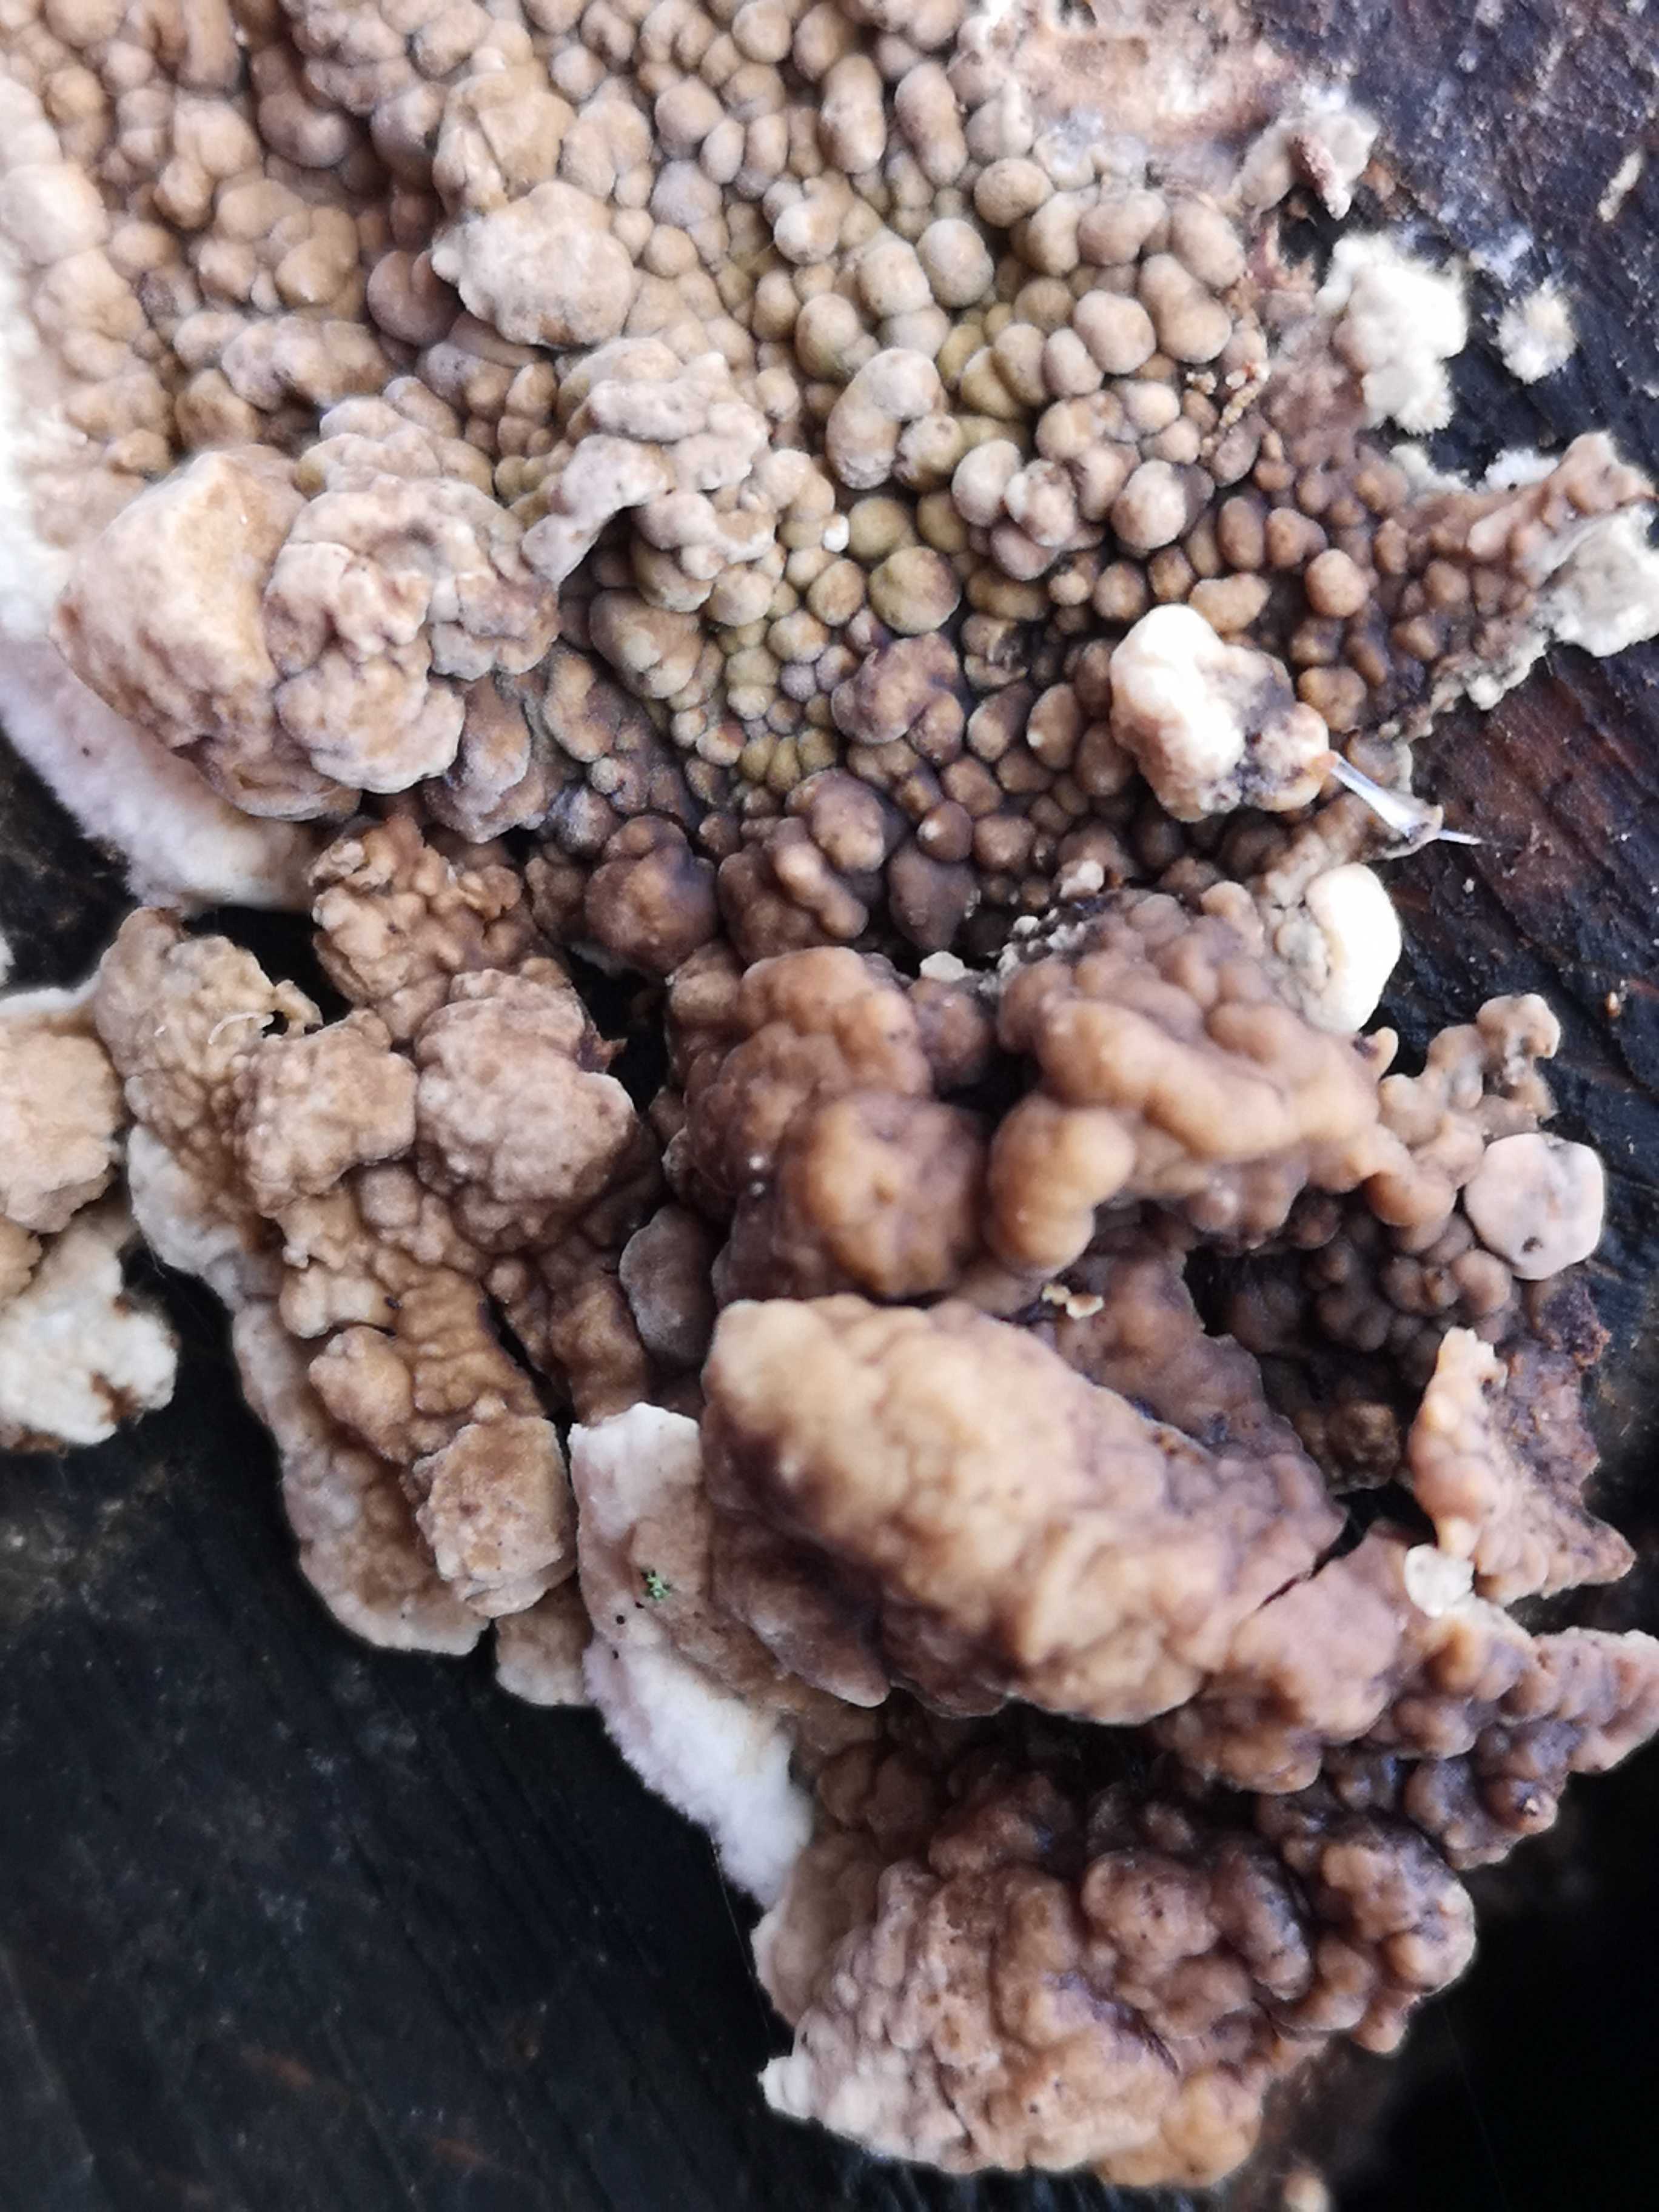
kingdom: Fungi
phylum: Basidiomycota
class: Agaricomycetes
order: Boletales
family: Coniophoraceae
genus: Coniophora
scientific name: Coniophora puteana
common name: gul tømmersvamp
